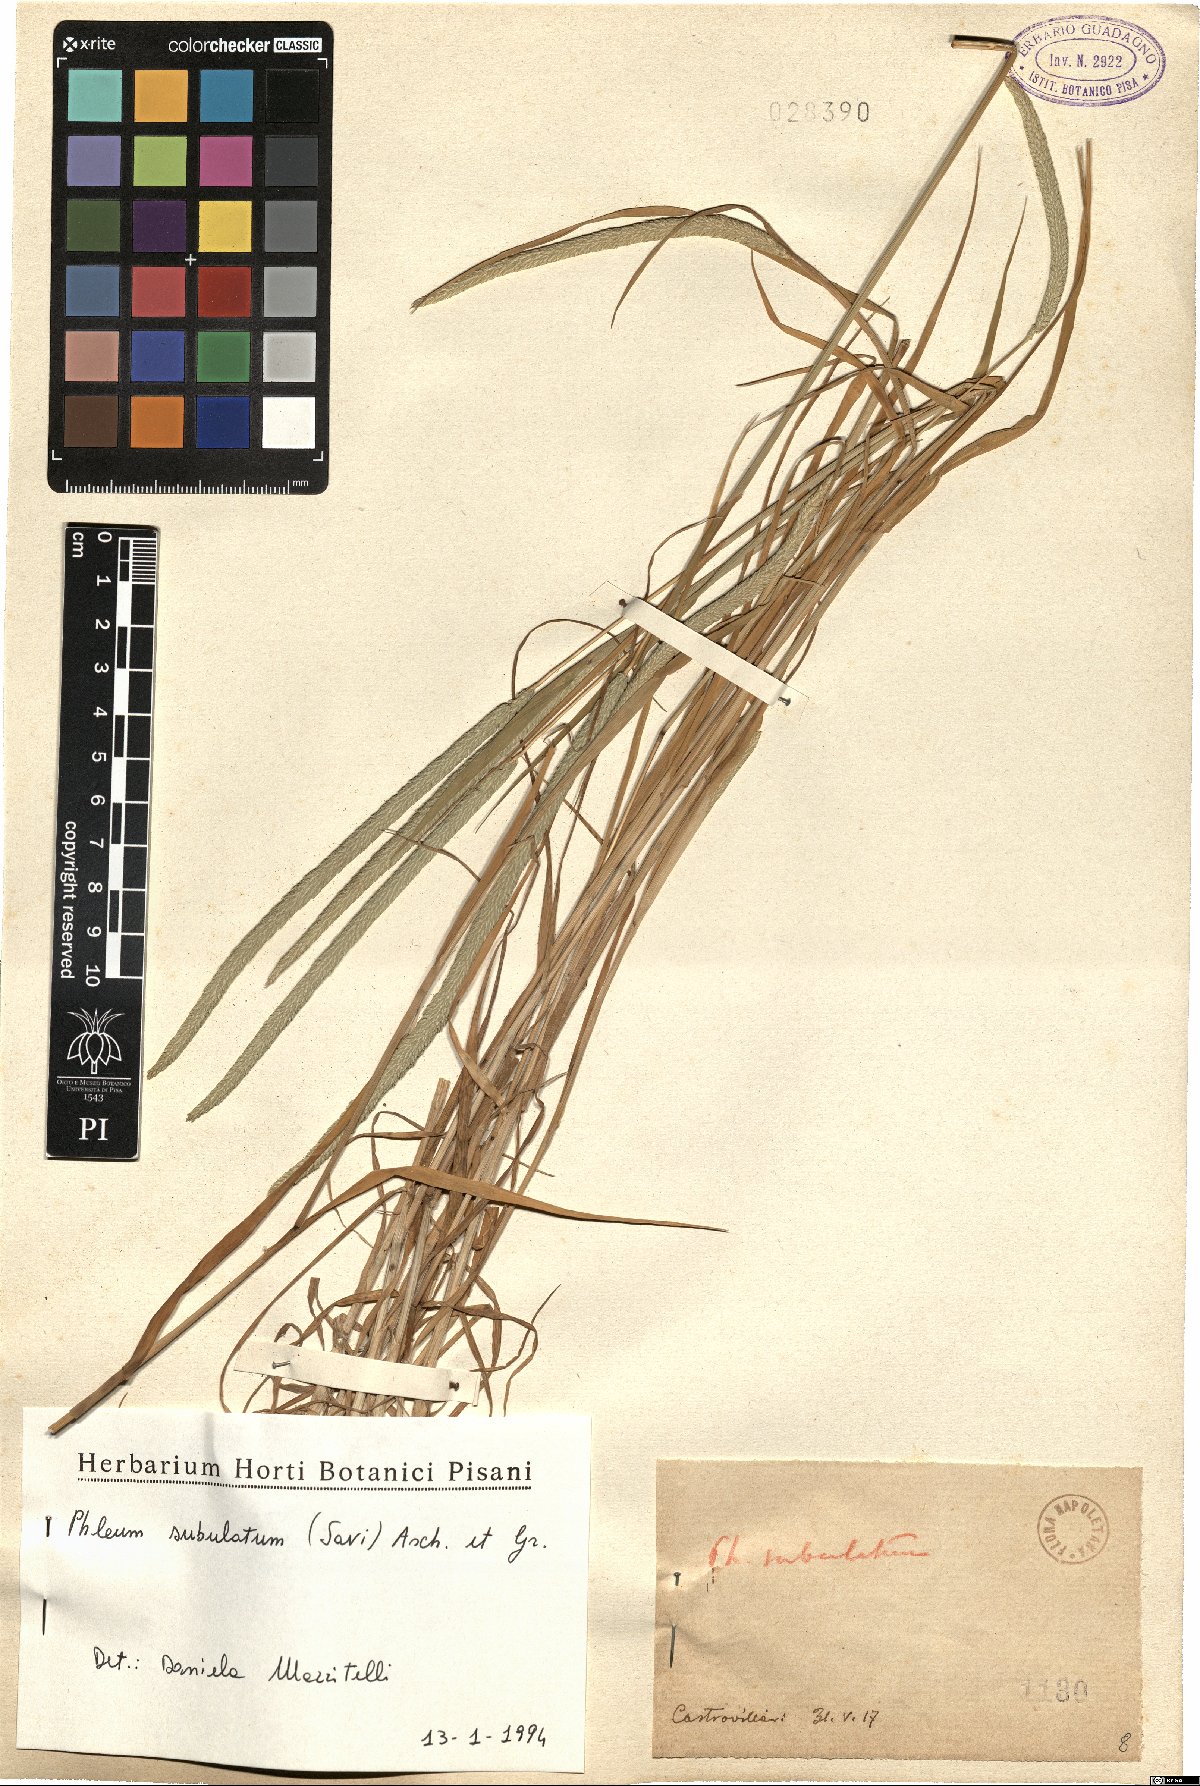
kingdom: Plantae
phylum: Tracheophyta
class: Liliopsida
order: Poales
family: Poaceae
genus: Phleum
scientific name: Phleum subulatum
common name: Italian timothy
